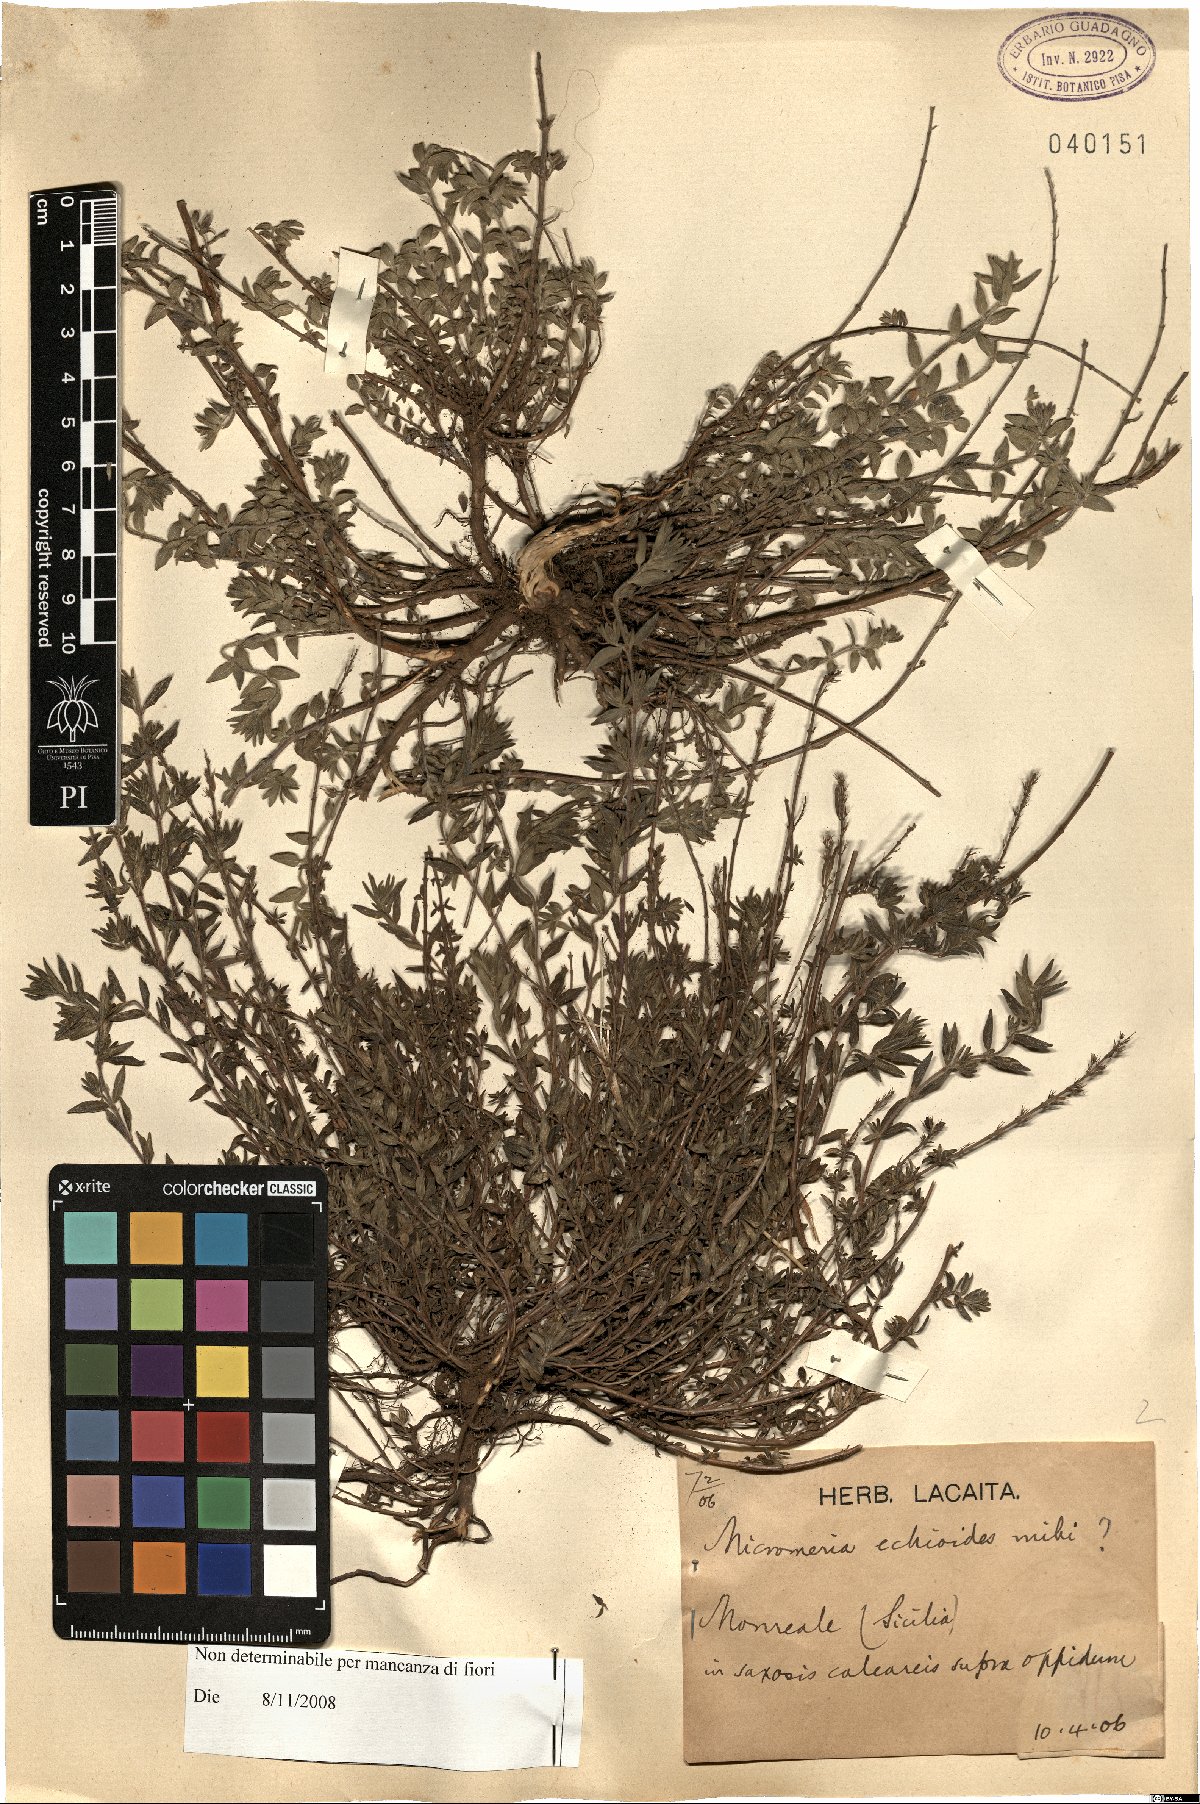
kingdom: Plantae
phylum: Tracheophyta
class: Magnoliopsida
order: Lamiales
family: Lamiaceae
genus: Micromeria
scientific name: Micromeria graeca
